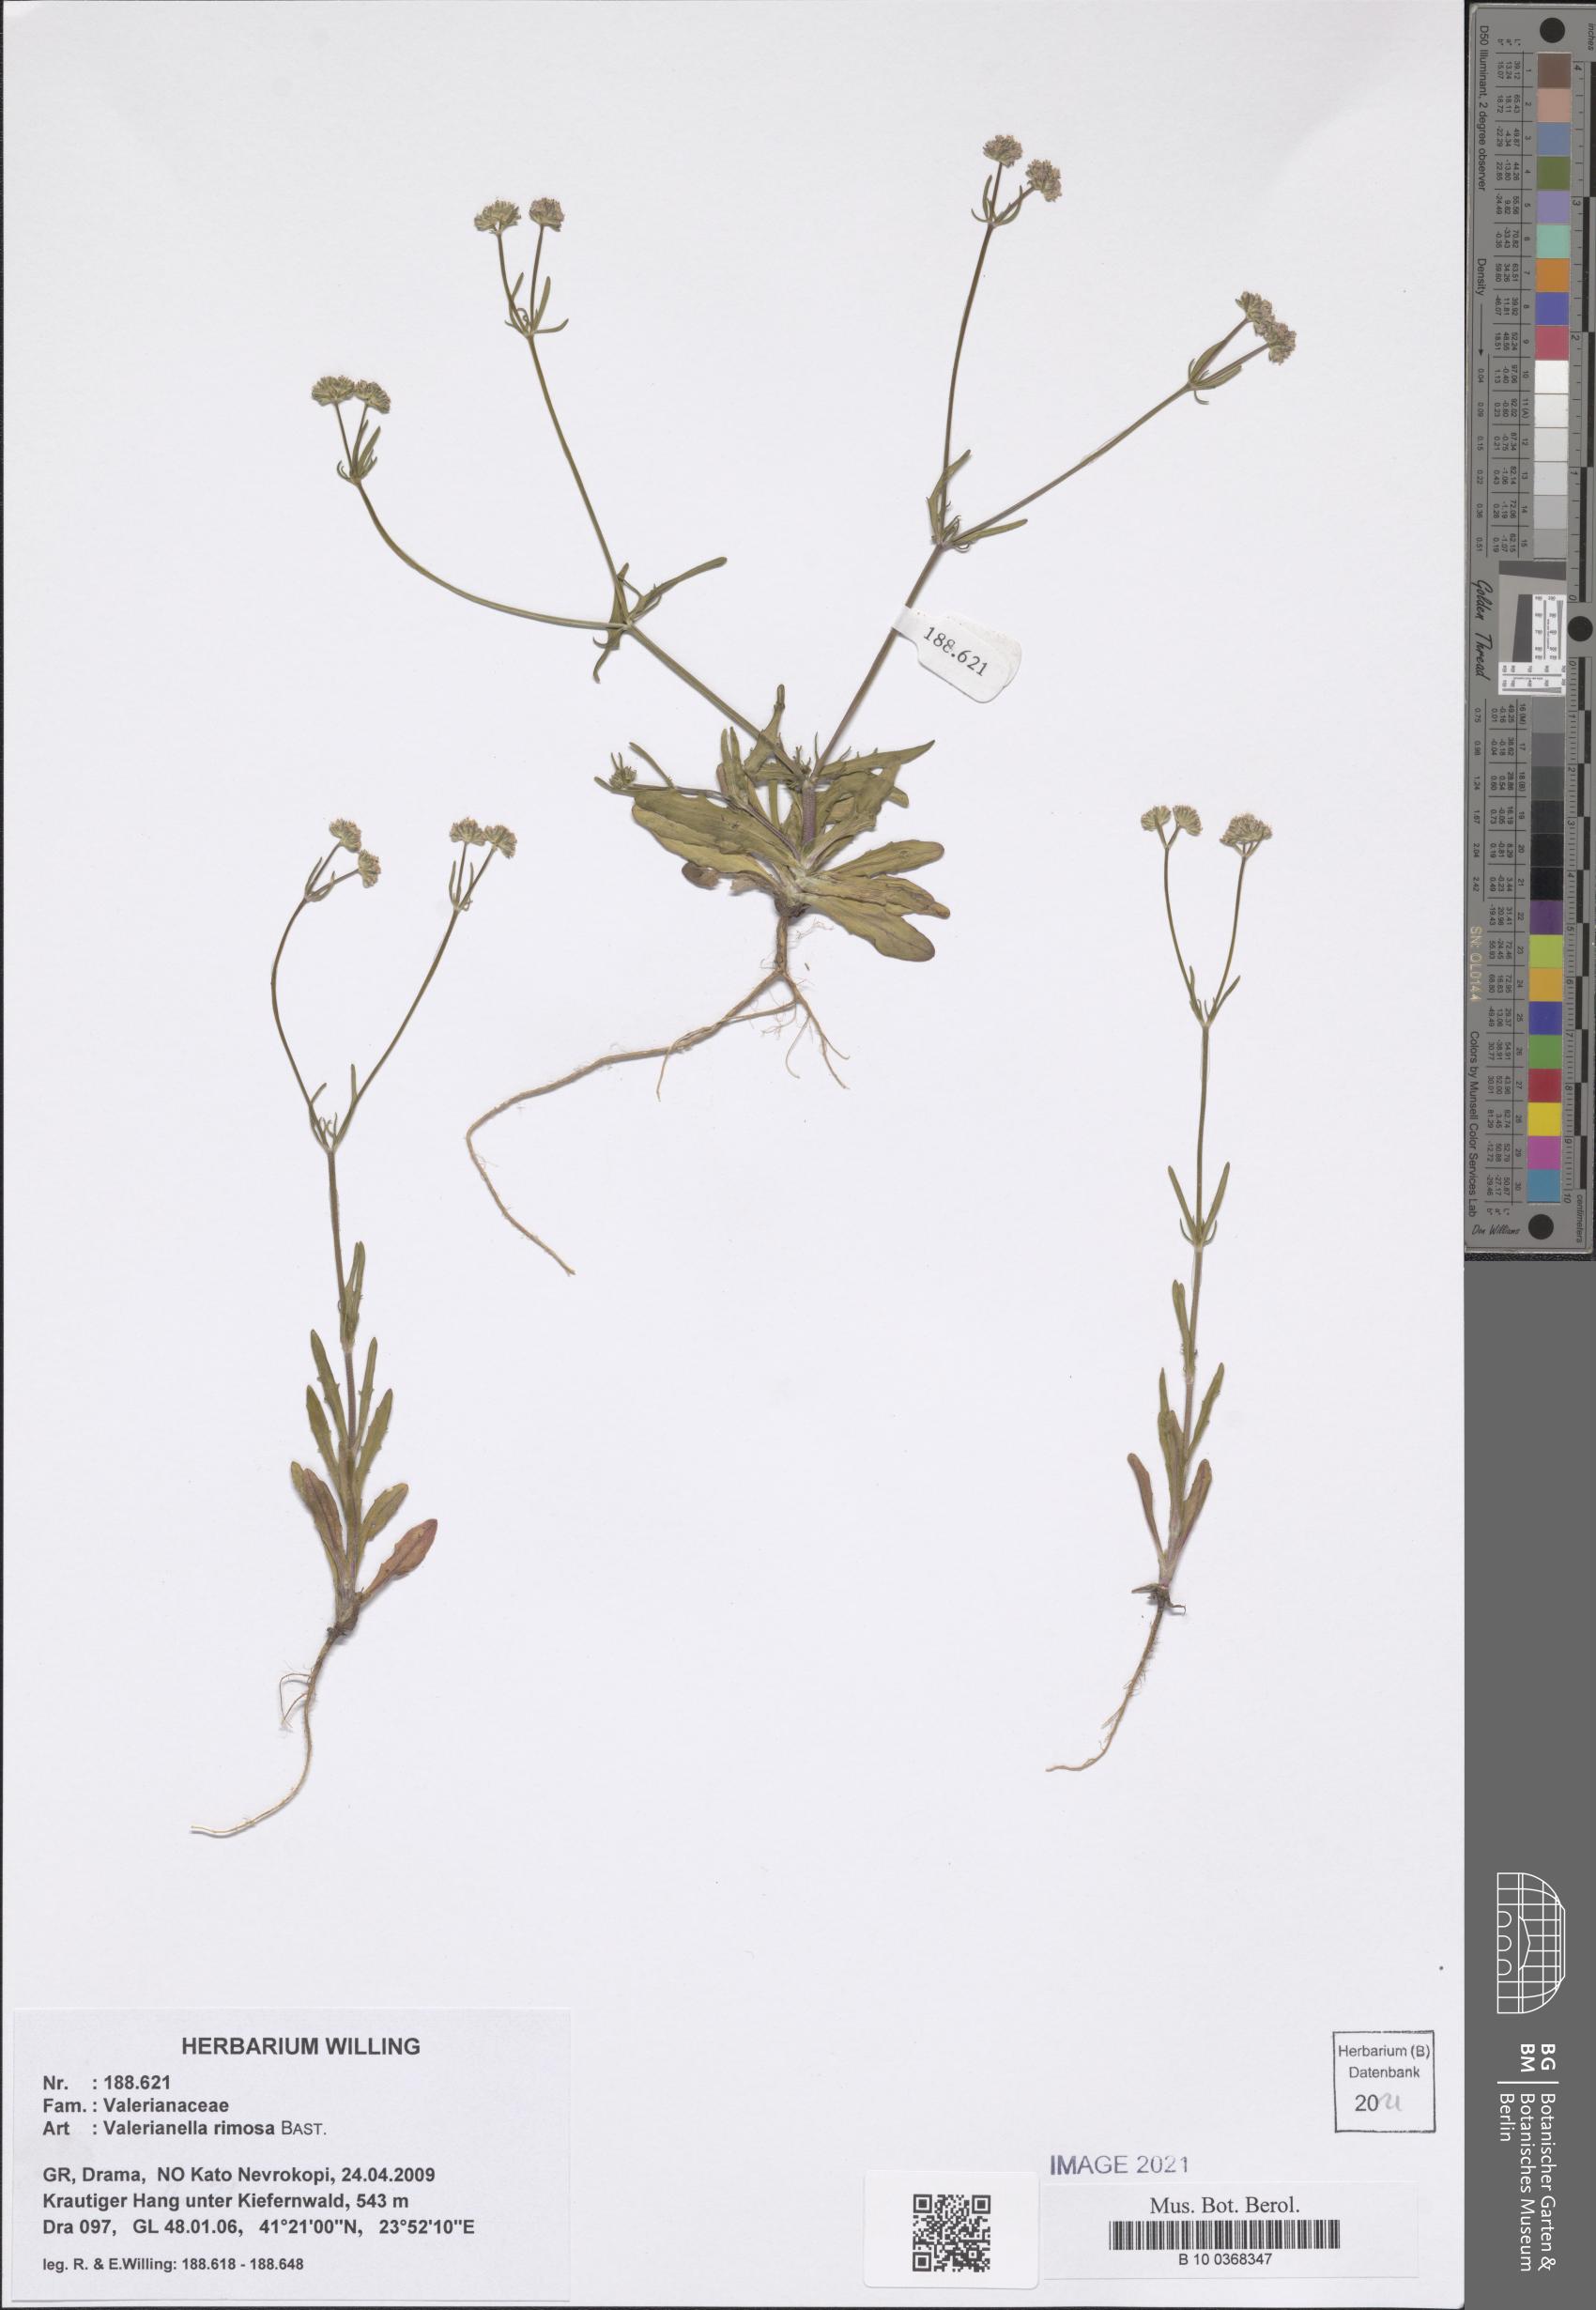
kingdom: Plantae
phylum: Tracheophyta
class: Magnoliopsida
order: Dipsacales
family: Caprifoliaceae
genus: Valerianella
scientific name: Valerianella rimosa
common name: Broad-fruited cornsalad
